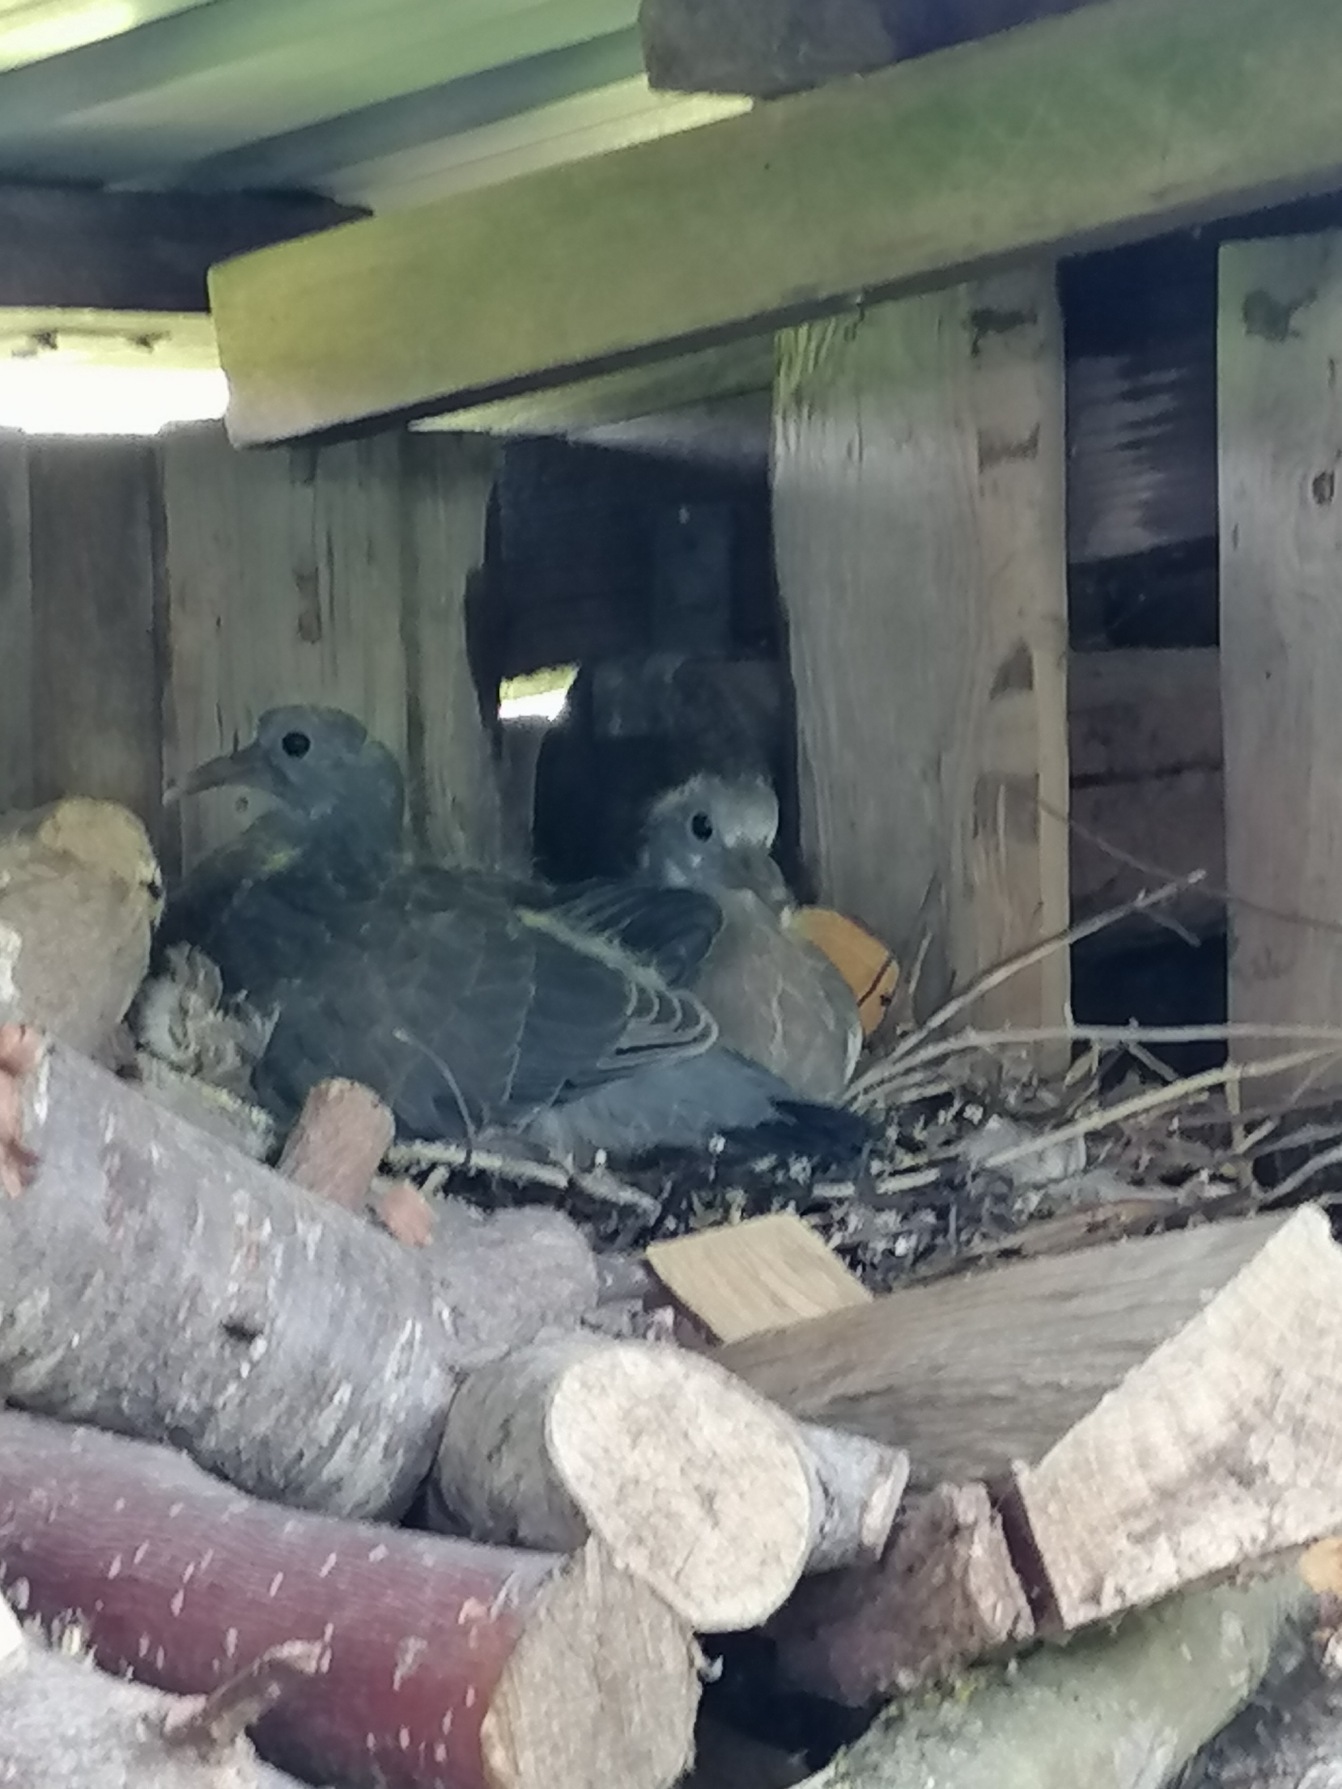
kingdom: Animalia
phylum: Chordata
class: Aves
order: Columbiformes
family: Columbidae
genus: Columba
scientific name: Columba palumbus
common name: Ringdue
